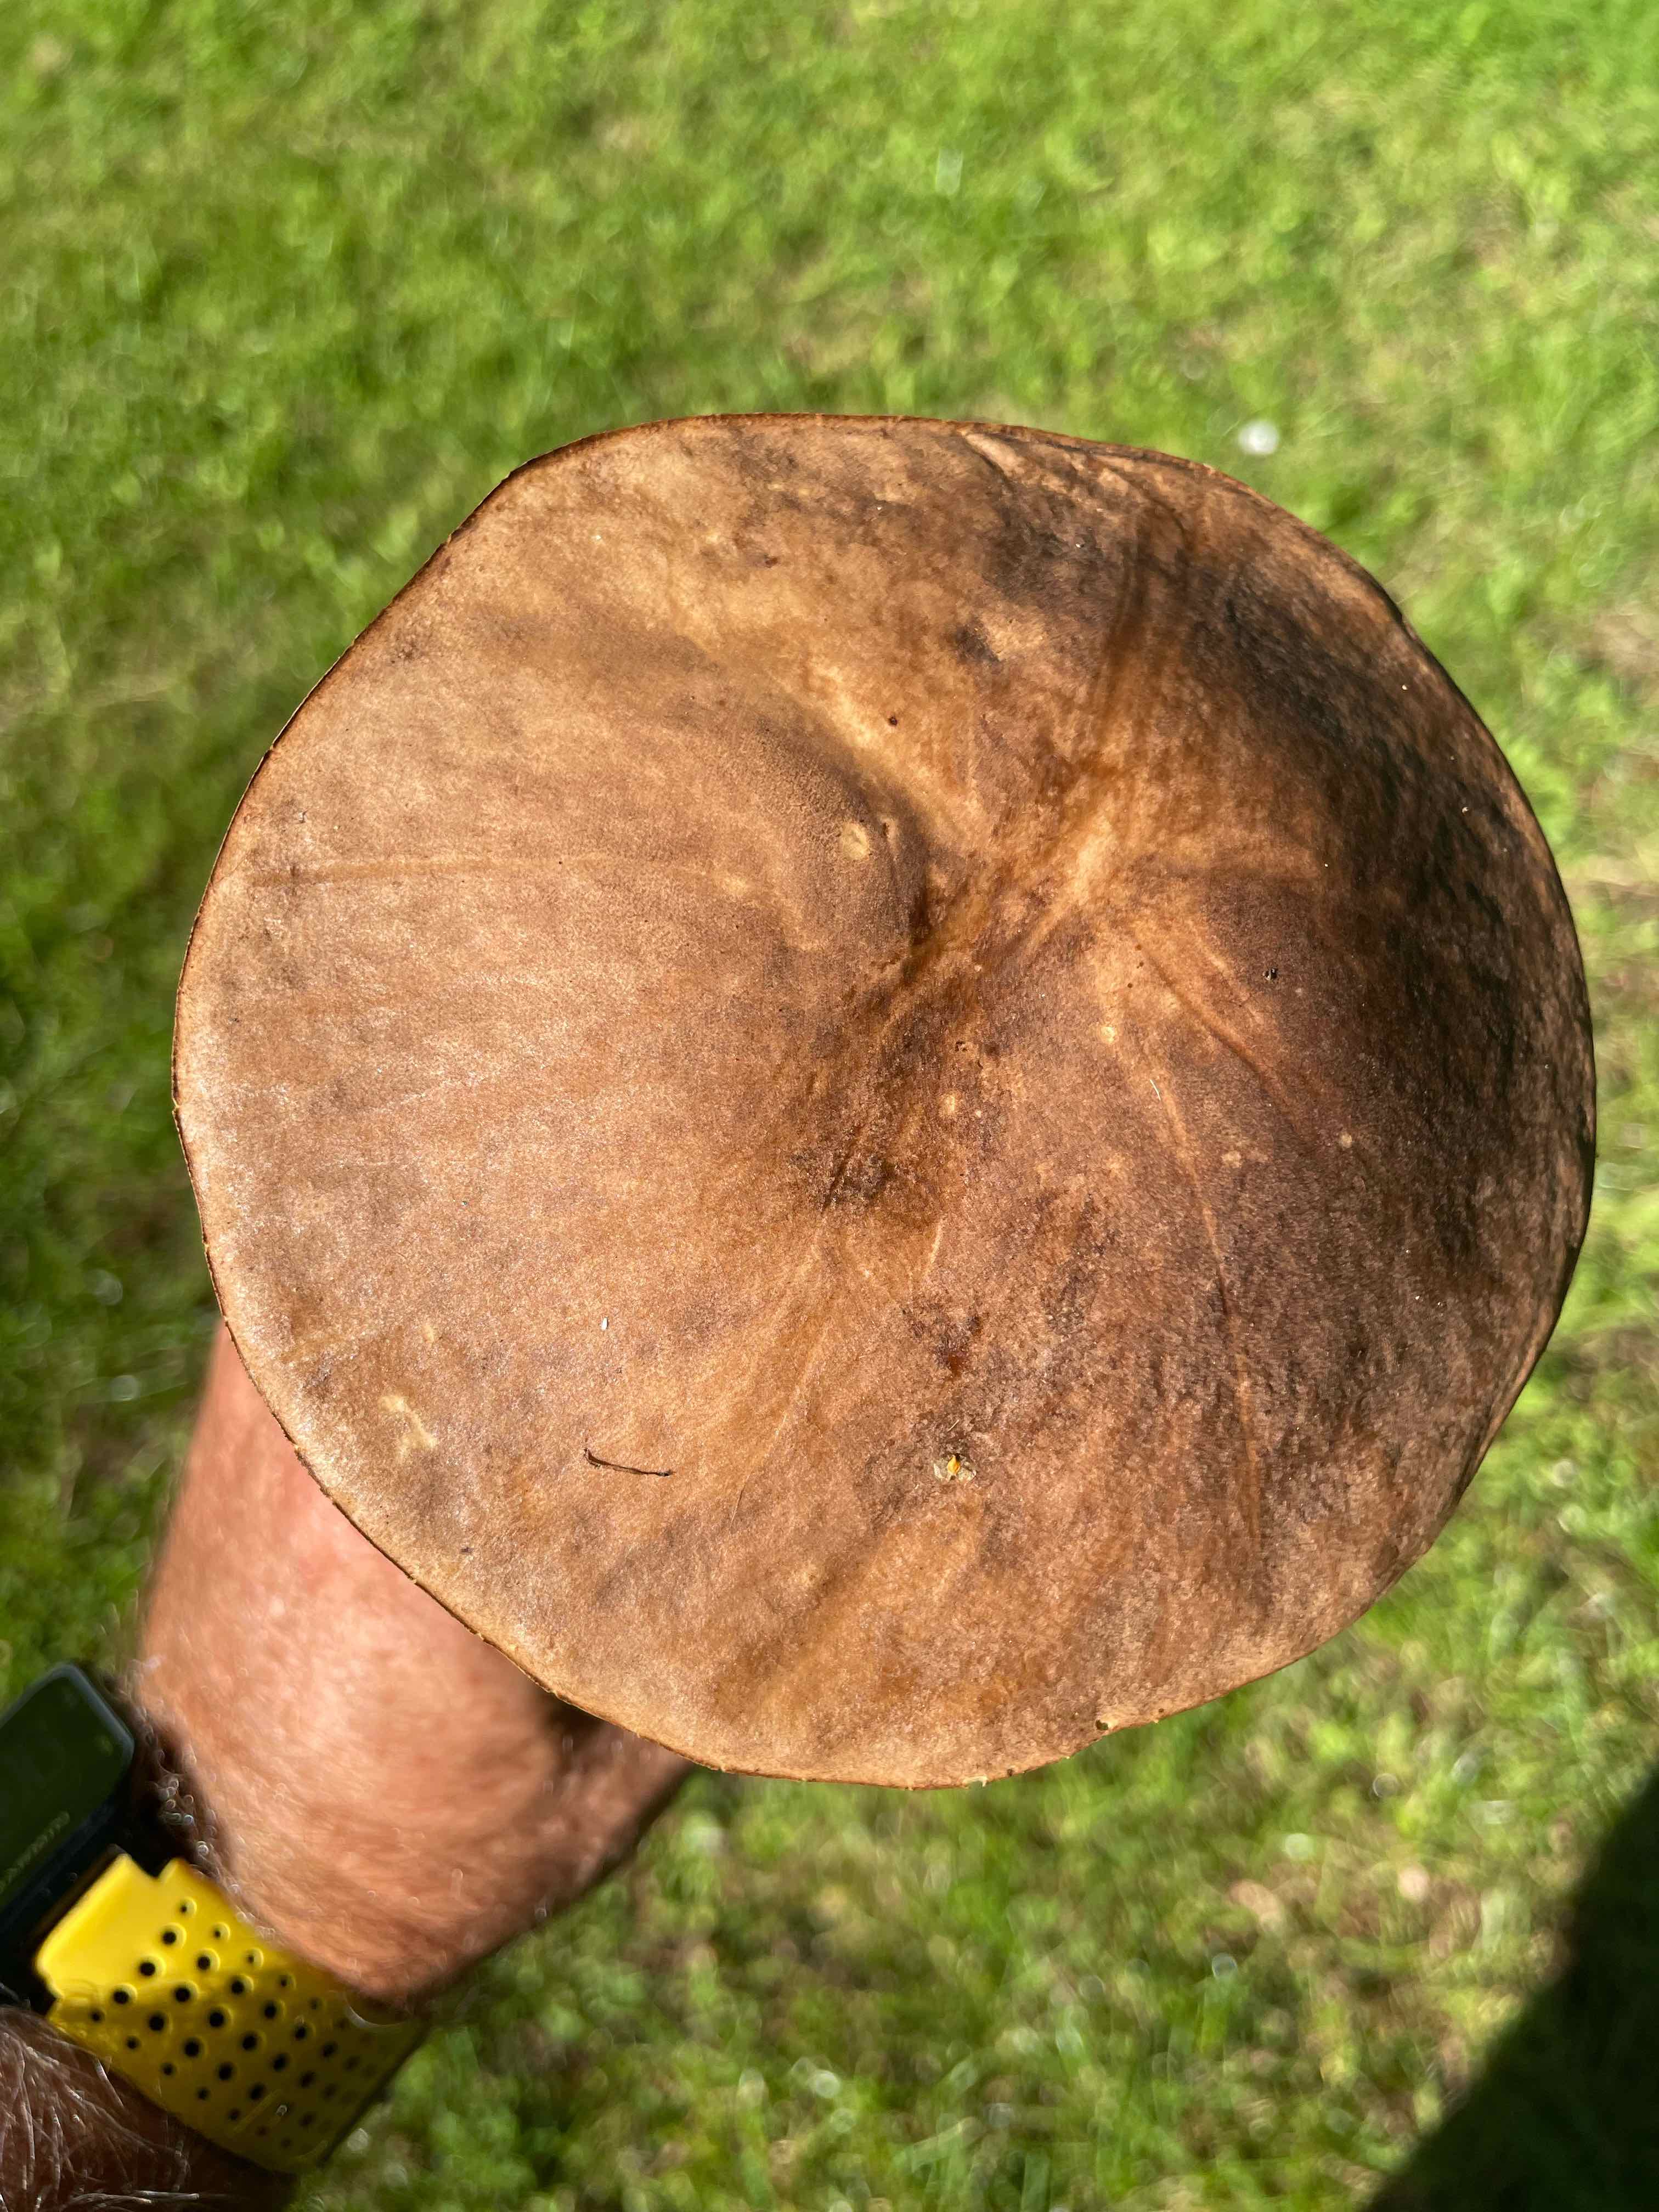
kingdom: Fungi
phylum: Basidiomycota
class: Agaricomycetes
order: Boletales
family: Boletaceae
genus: Leccinum
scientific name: Leccinum scabrum
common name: brun skælrørhat
